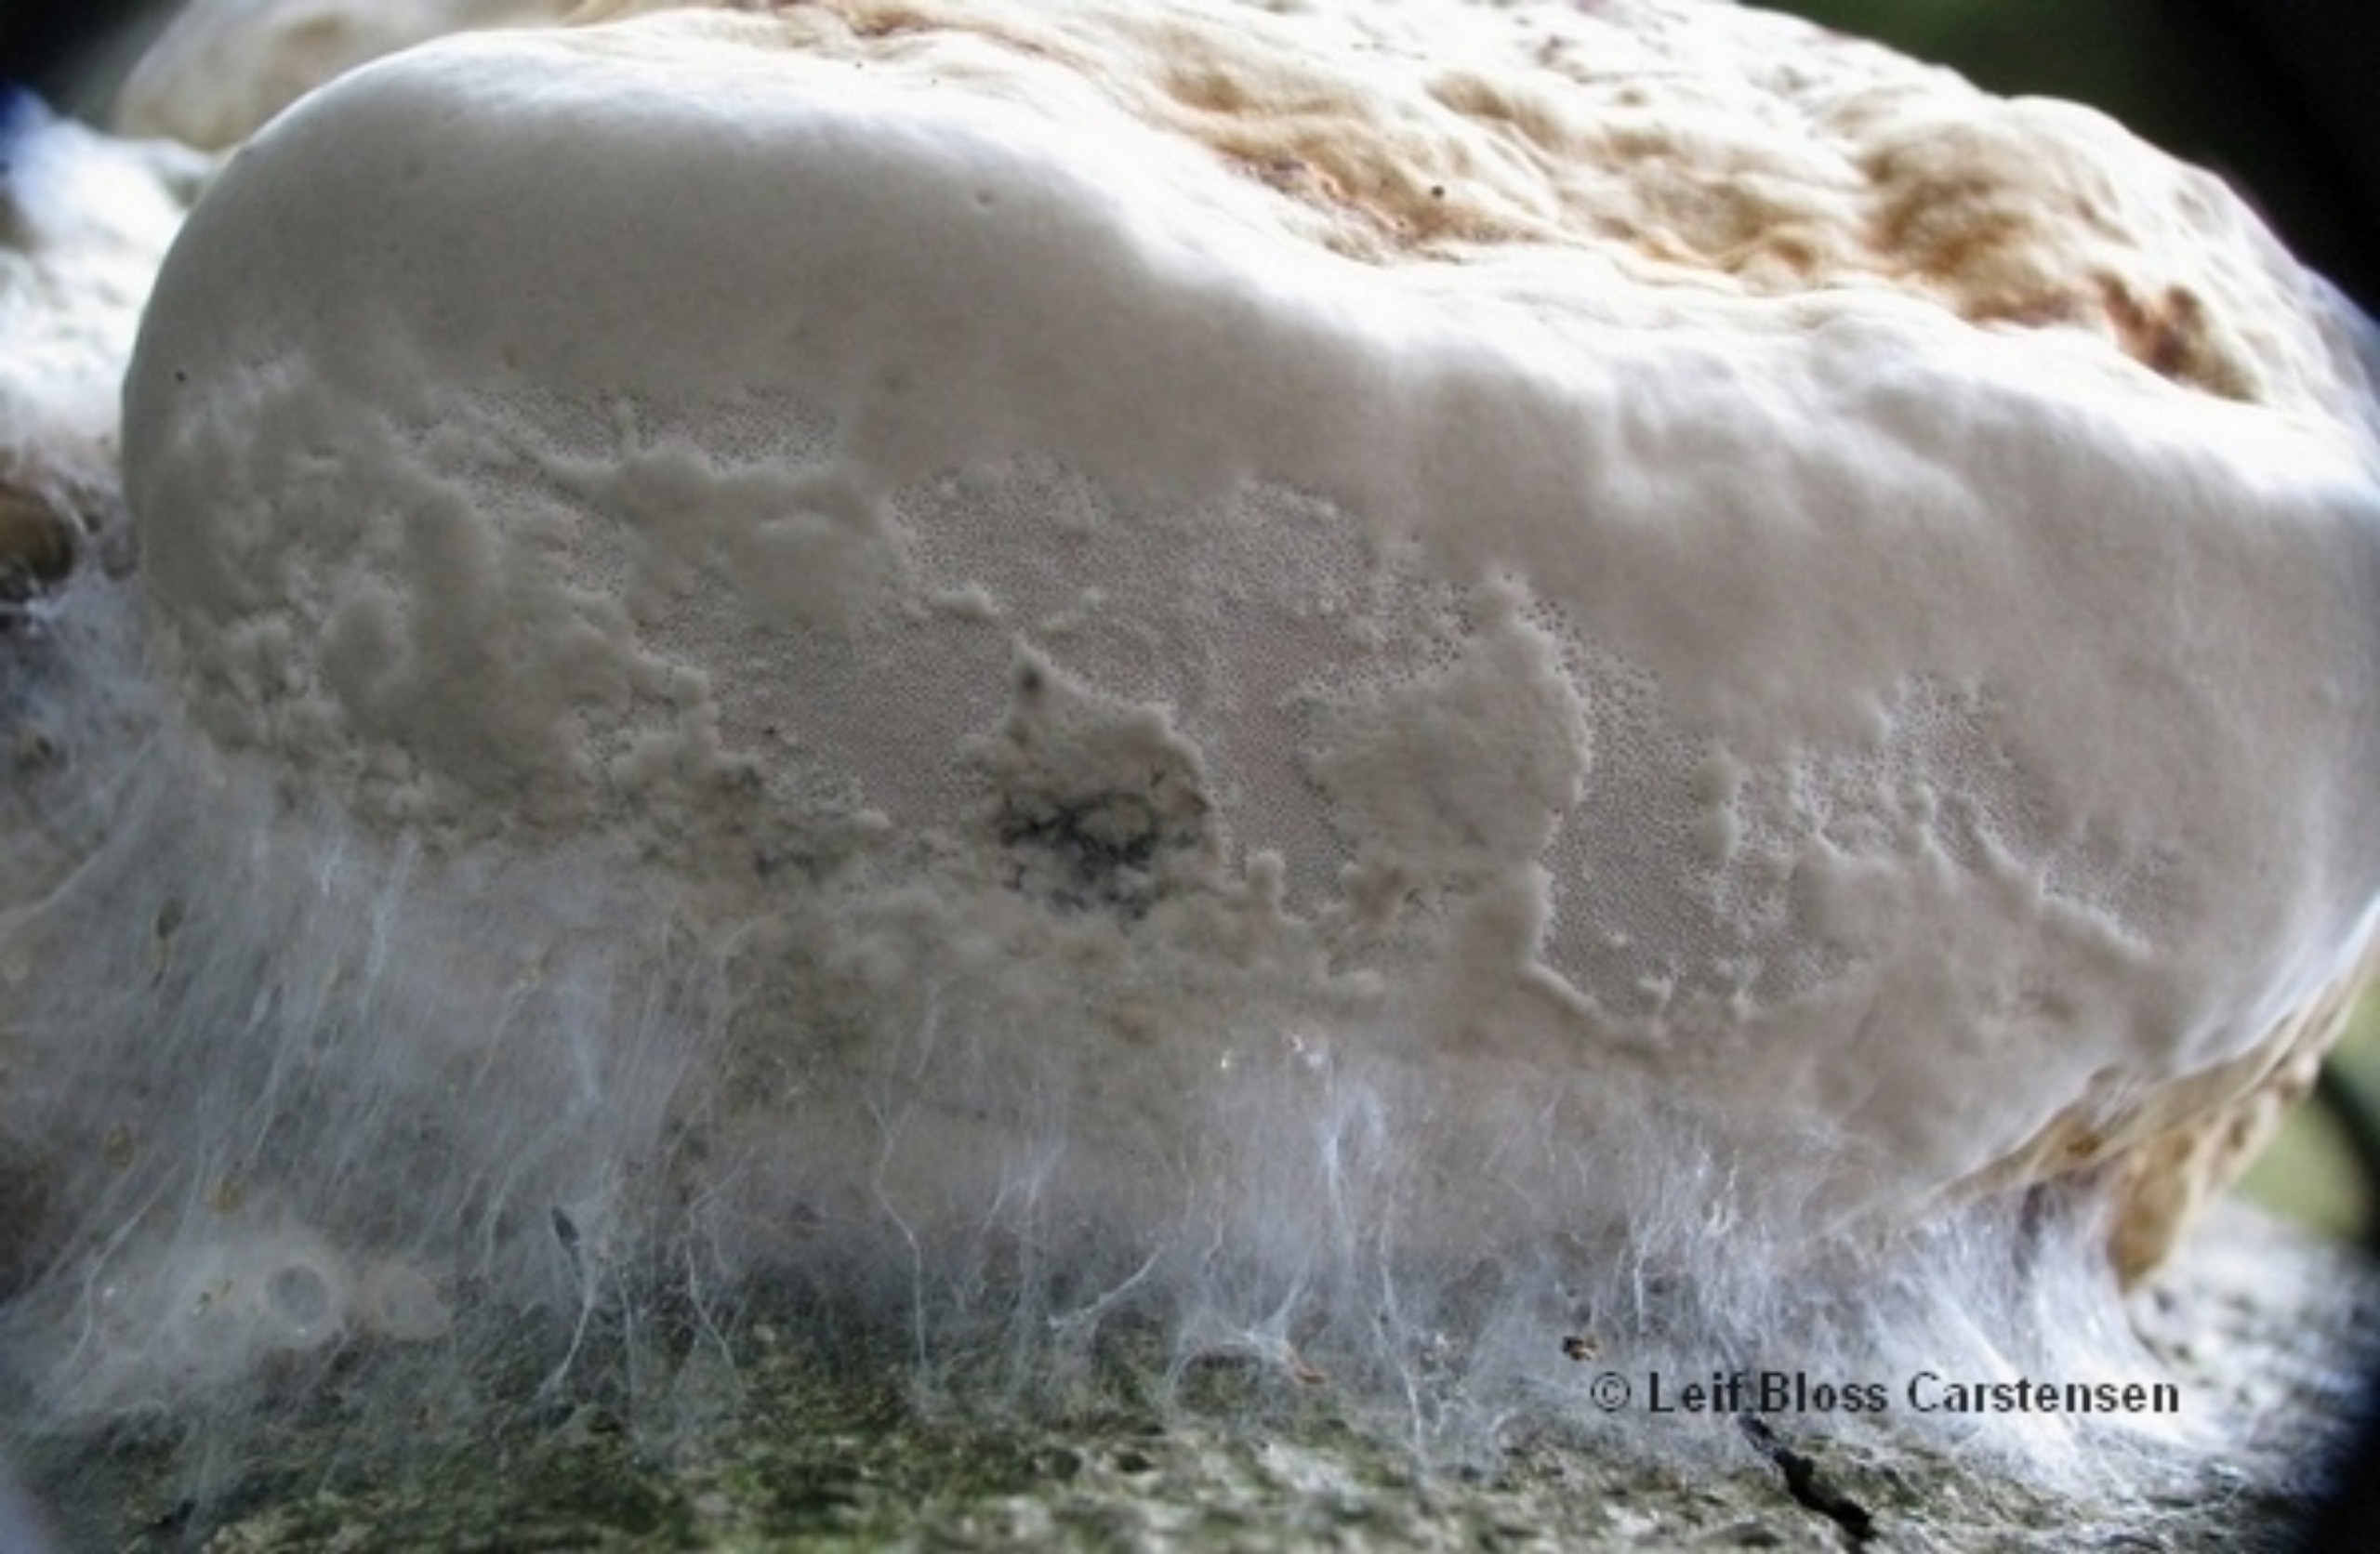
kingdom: Animalia
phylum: Arthropoda
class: Insecta
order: Diptera
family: Mycetophilidae
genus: Sciophila
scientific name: Sciophila rufa
